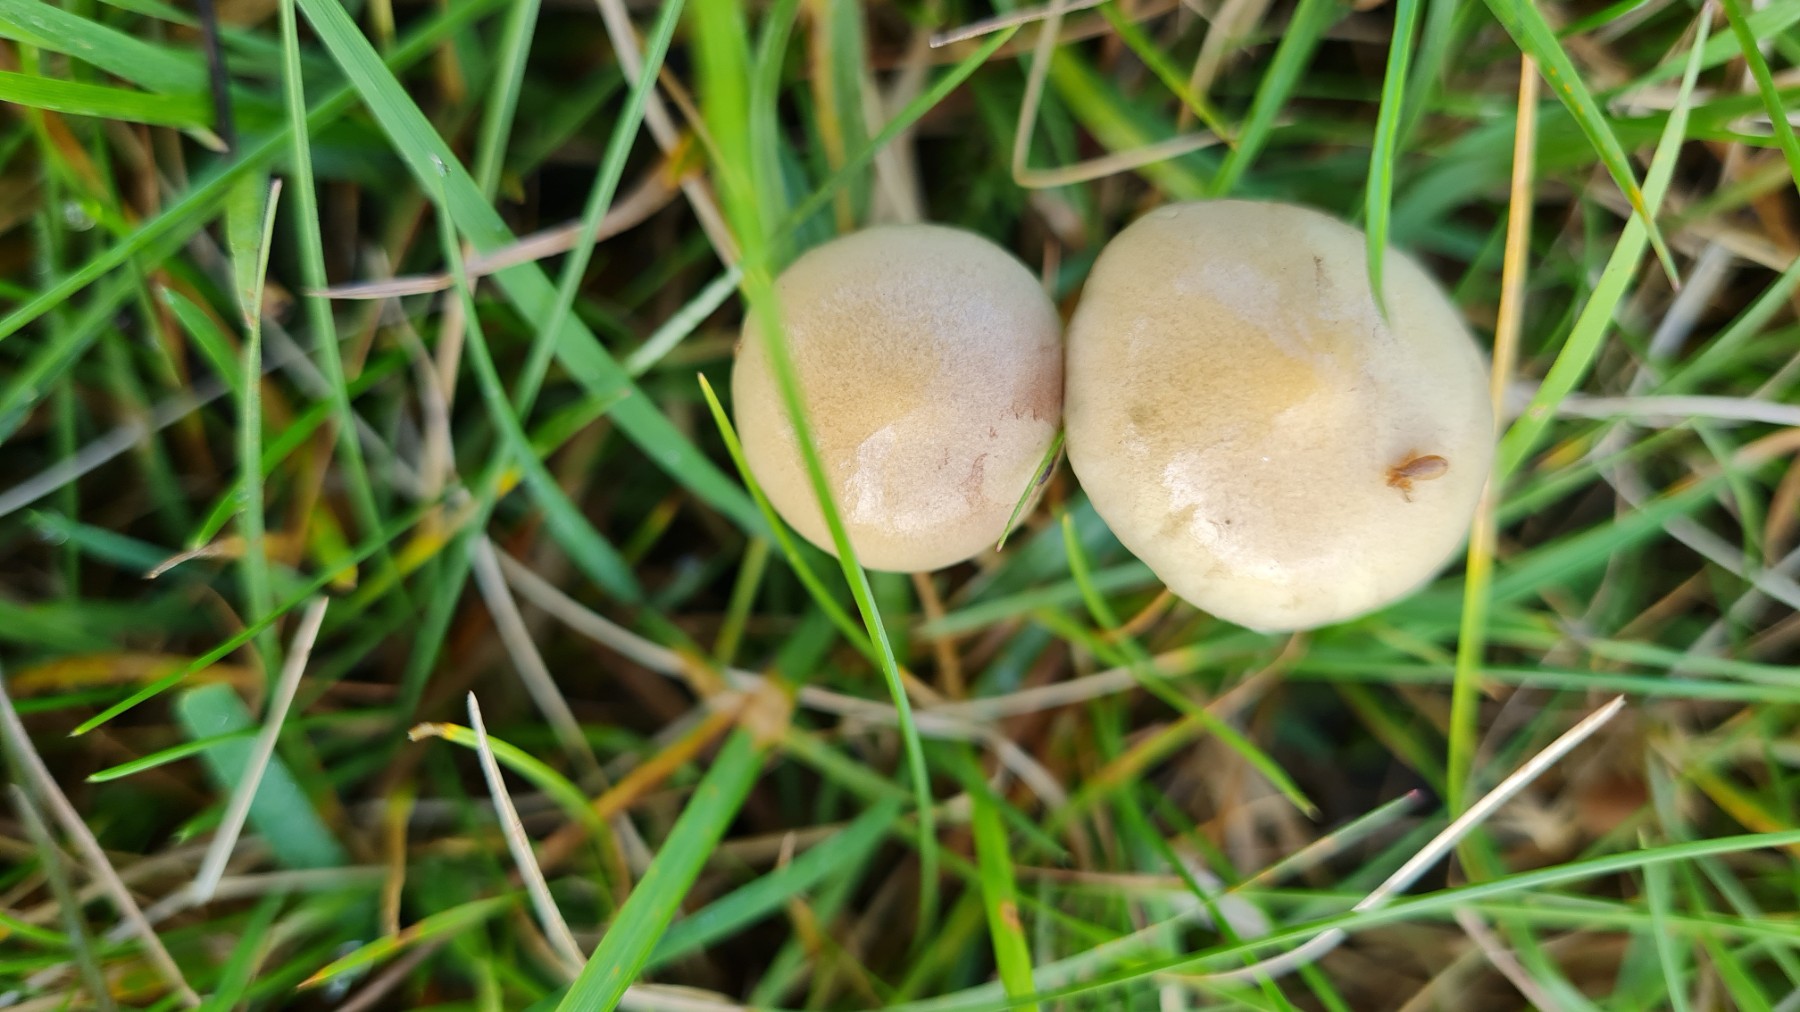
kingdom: Fungi
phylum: Basidiomycota
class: Agaricomycetes
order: Agaricales
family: Strophariaceae
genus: Protostropharia
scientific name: Protostropharia semiglobata
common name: halvkugleformet bredblad
